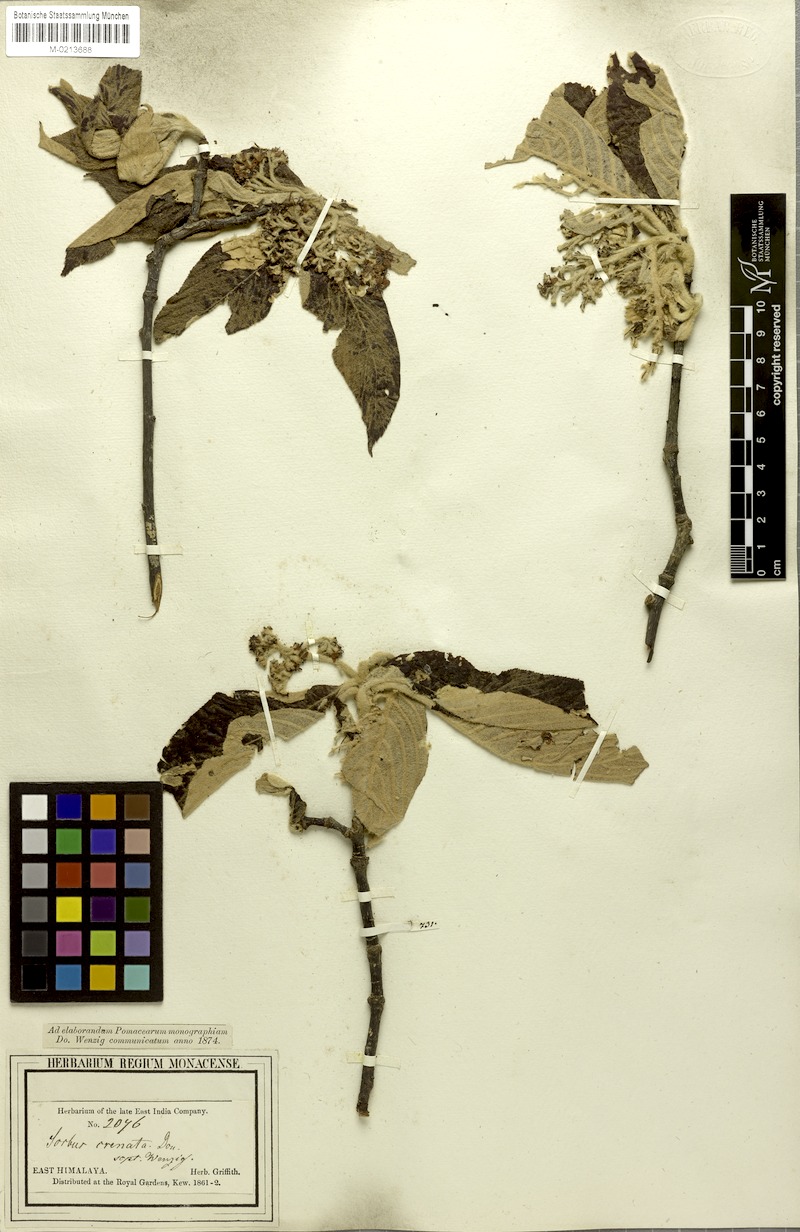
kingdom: Plantae
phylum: Tracheophyta
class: Magnoliopsida
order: Rosales
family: Rosaceae
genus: Sorbus
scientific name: Sorbus vestita
